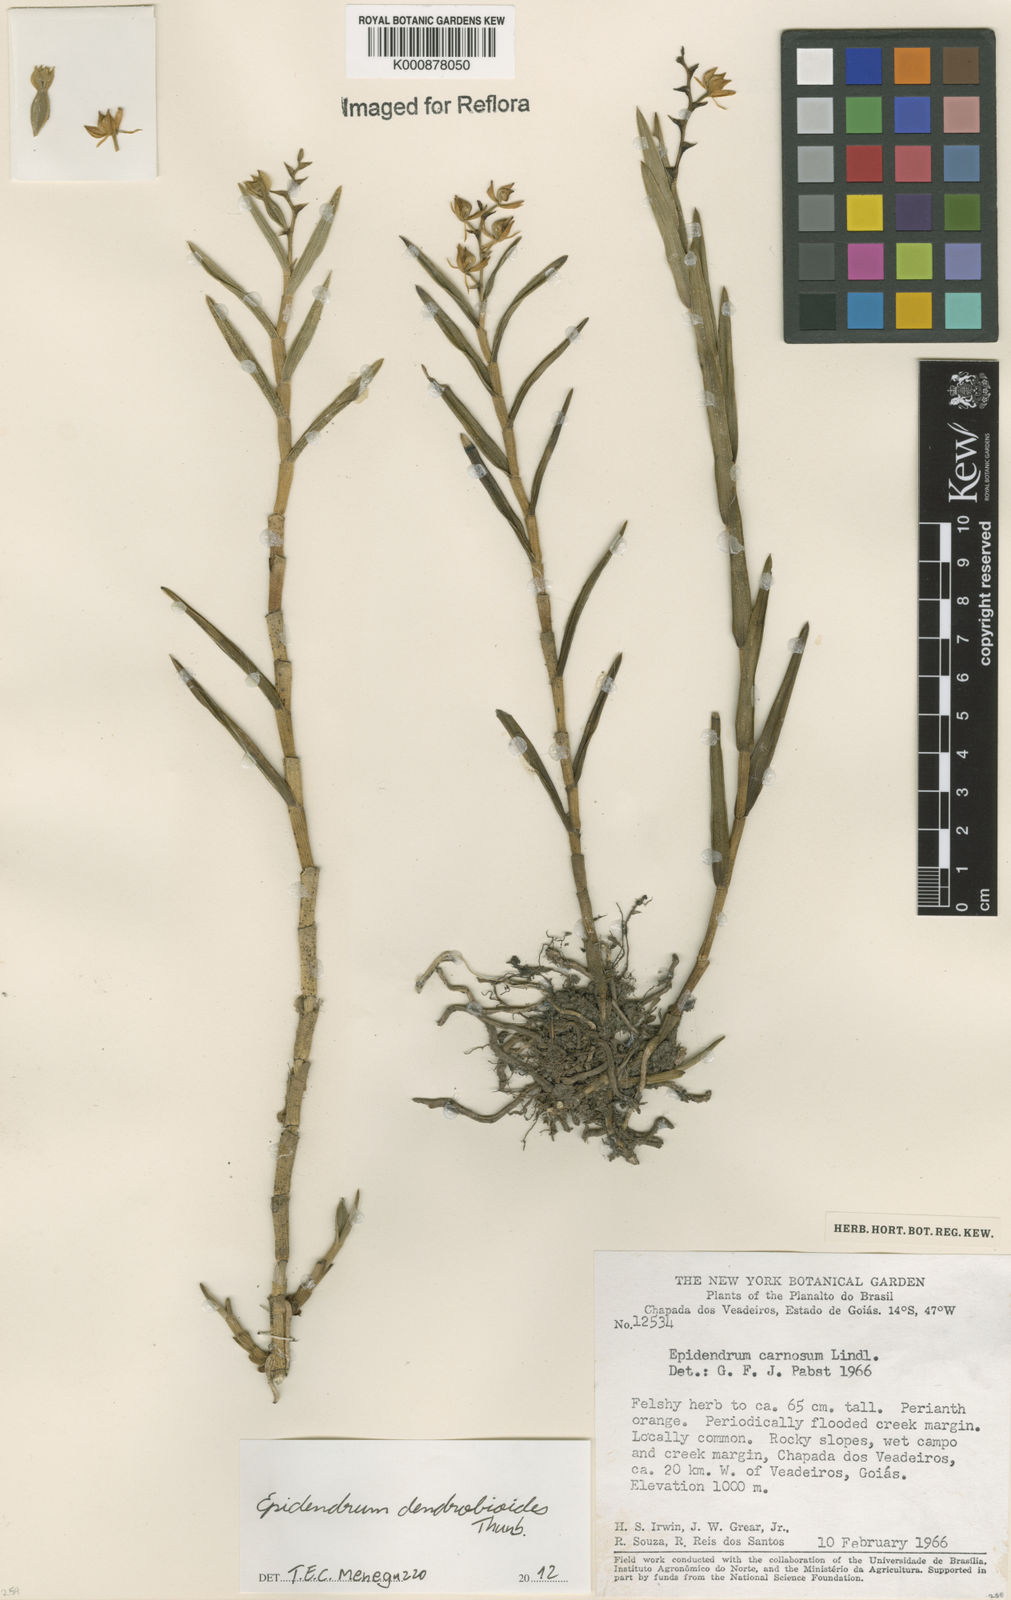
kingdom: Plantae
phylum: Tracheophyta
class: Liliopsida
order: Asparagales
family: Orchidaceae
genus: Epidendrum
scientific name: Epidendrum dendrobioides
